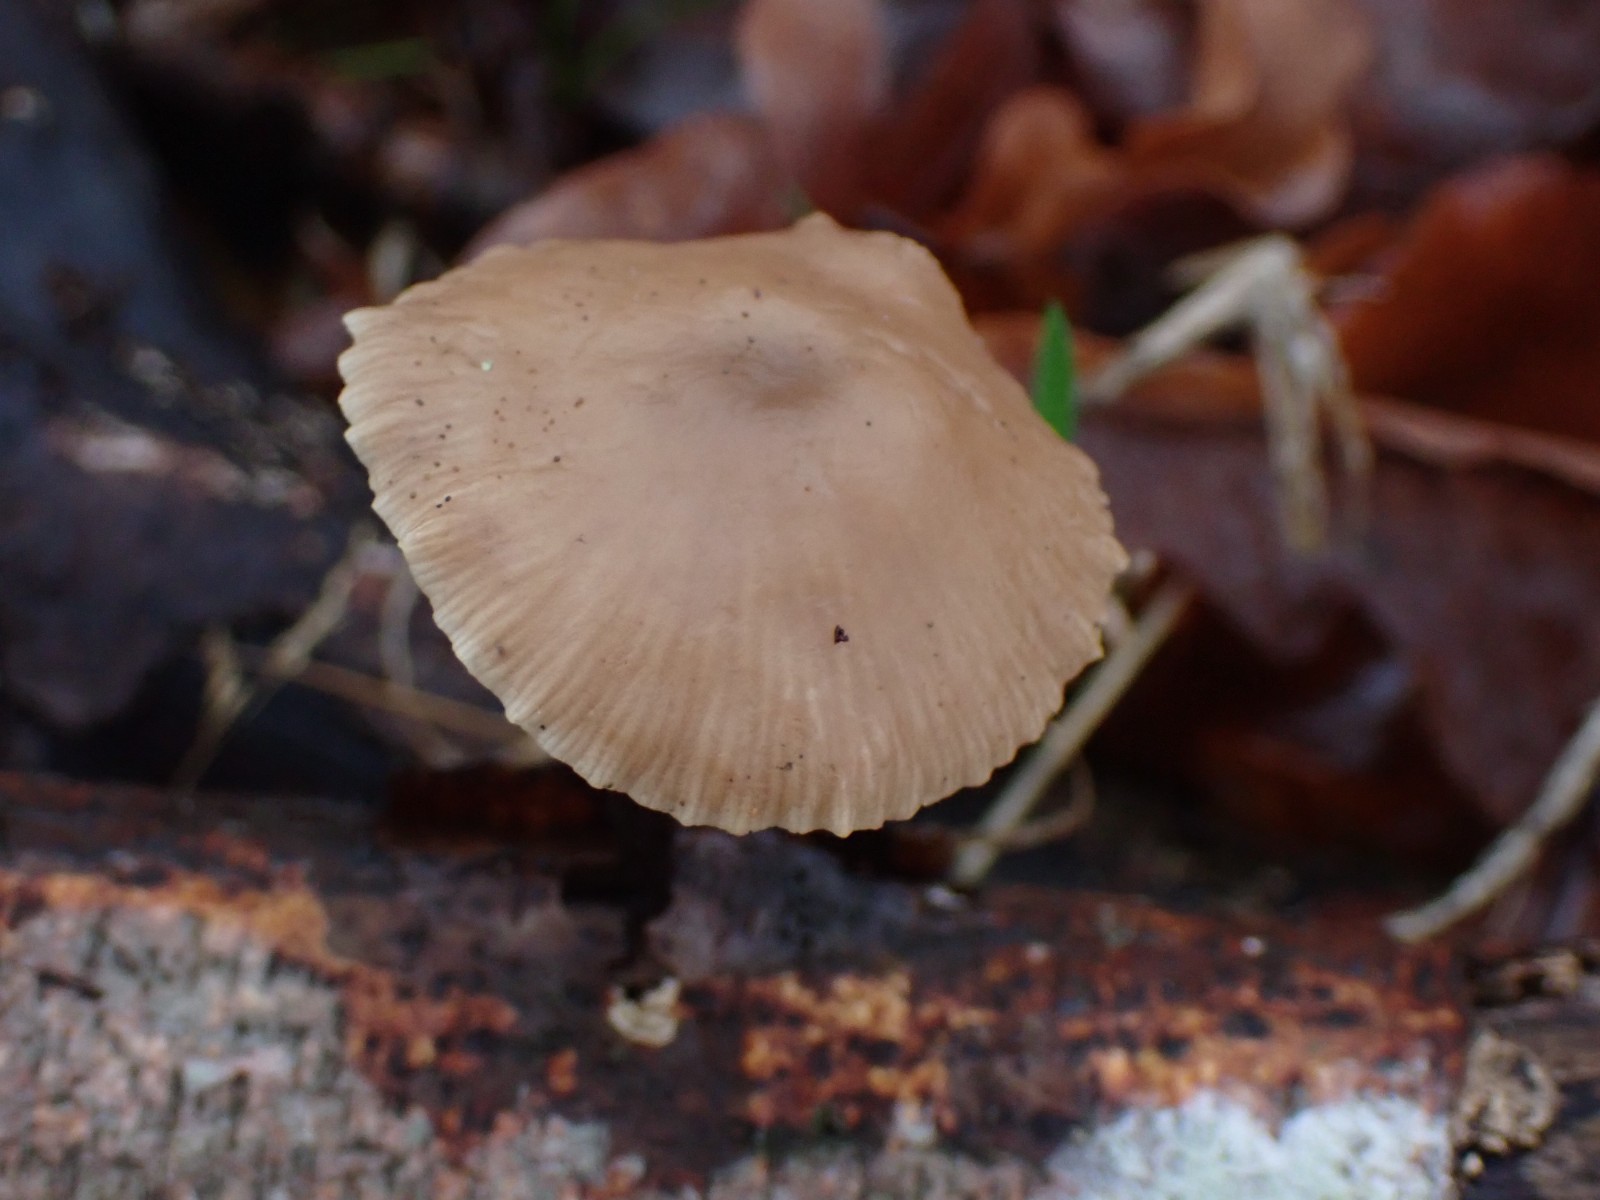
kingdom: Fungi
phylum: Basidiomycota
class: Agaricomycetes
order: Agaricales
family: Omphalotaceae
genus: Mycetinis
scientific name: Mycetinis alliaceus
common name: stor løghat
